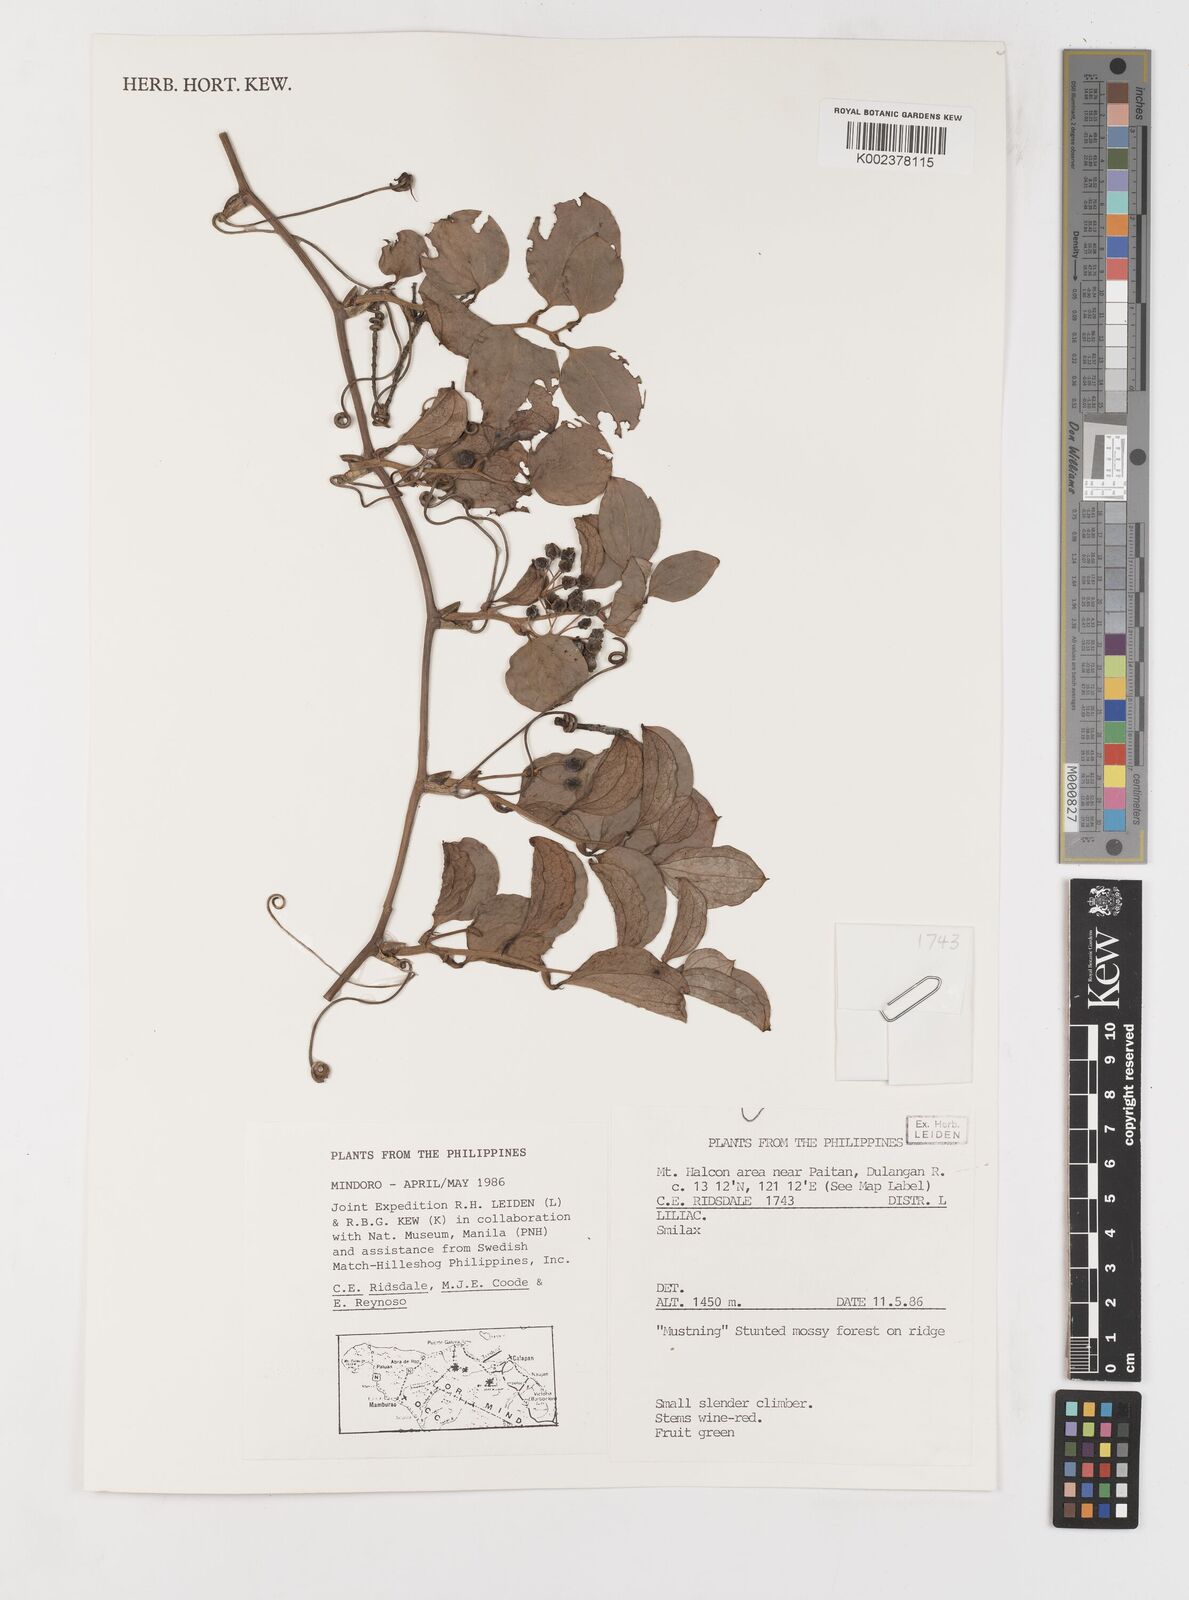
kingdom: Plantae
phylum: Tracheophyta
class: Liliopsida
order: Liliales
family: Smilacaceae
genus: Smilax
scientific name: Smilax
